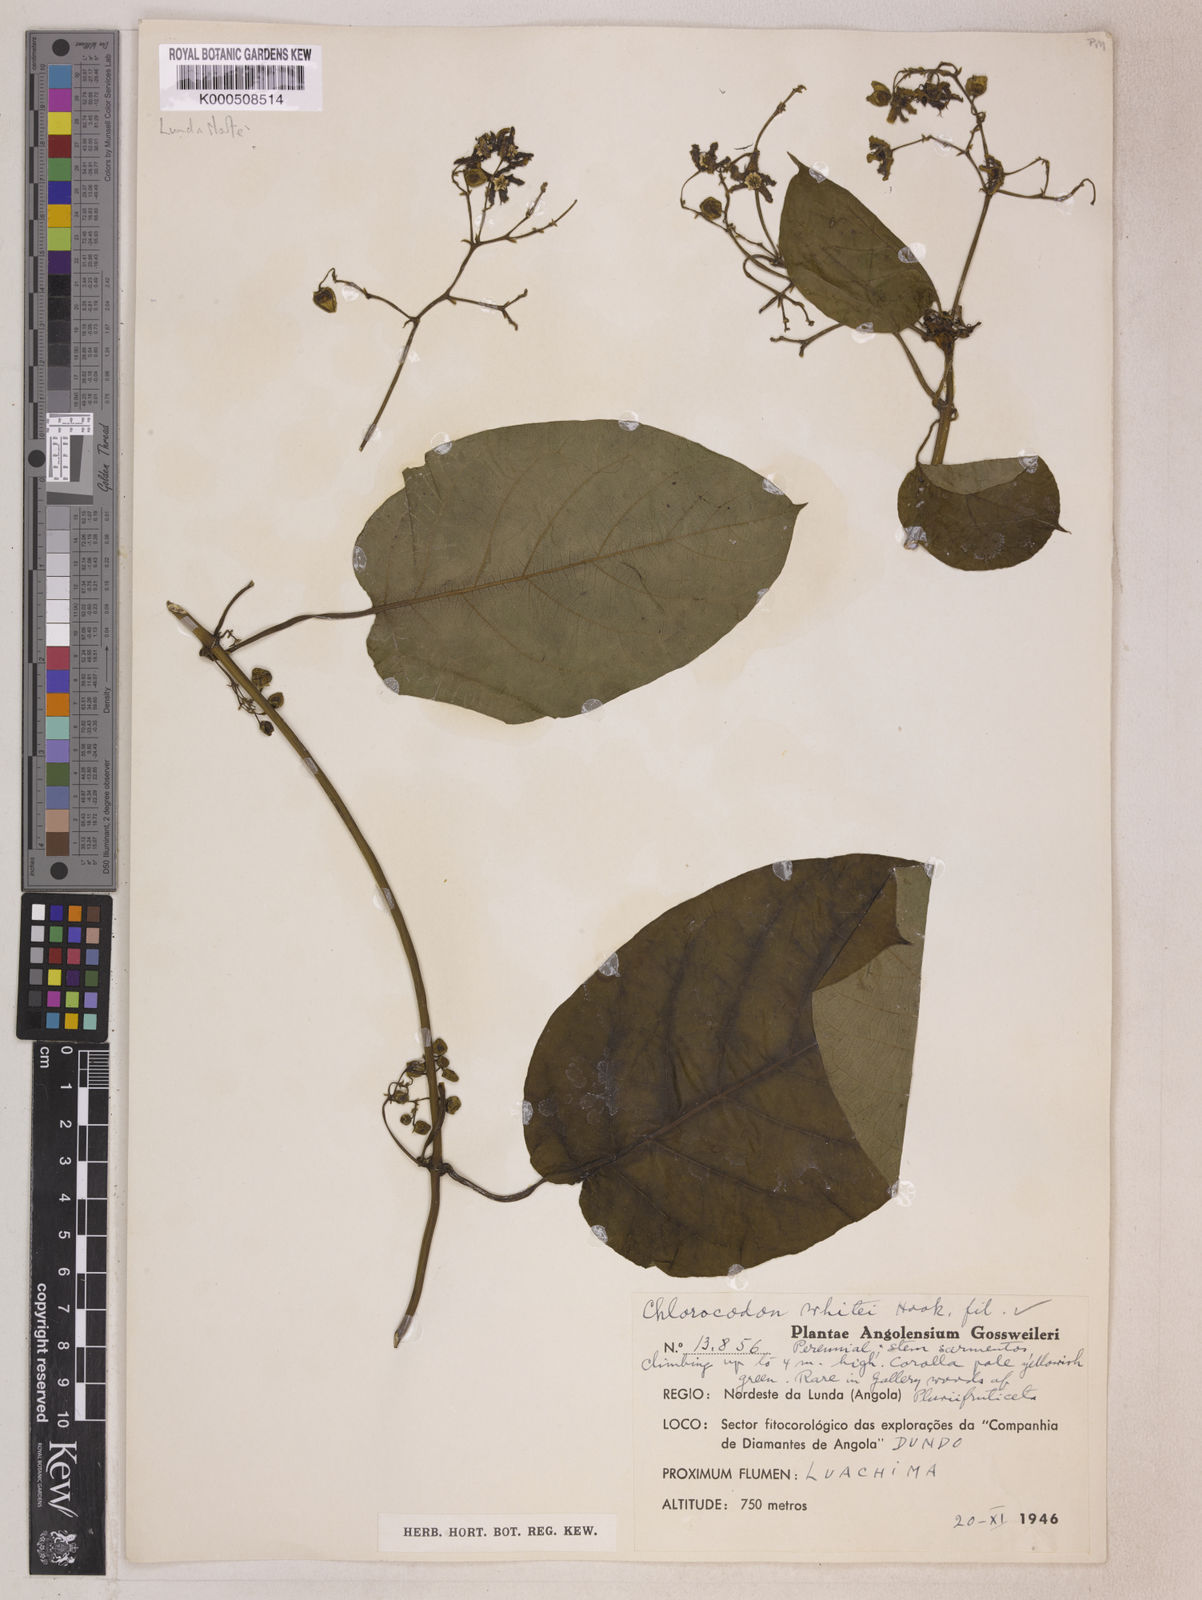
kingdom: Plantae
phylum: Tracheophyta
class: Magnoliopsida
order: Gentianales
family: Apocynaceae
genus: Mondia
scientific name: Mondia whitei
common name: Mondia
